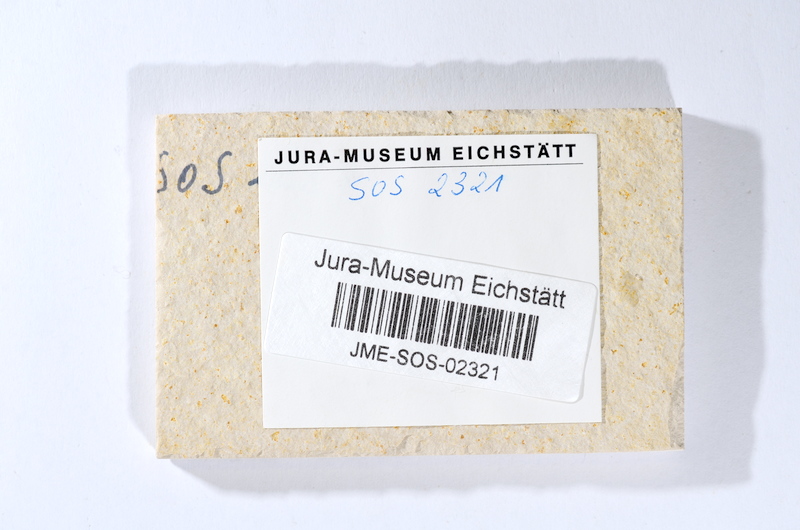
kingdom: Animalia
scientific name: Animalia
